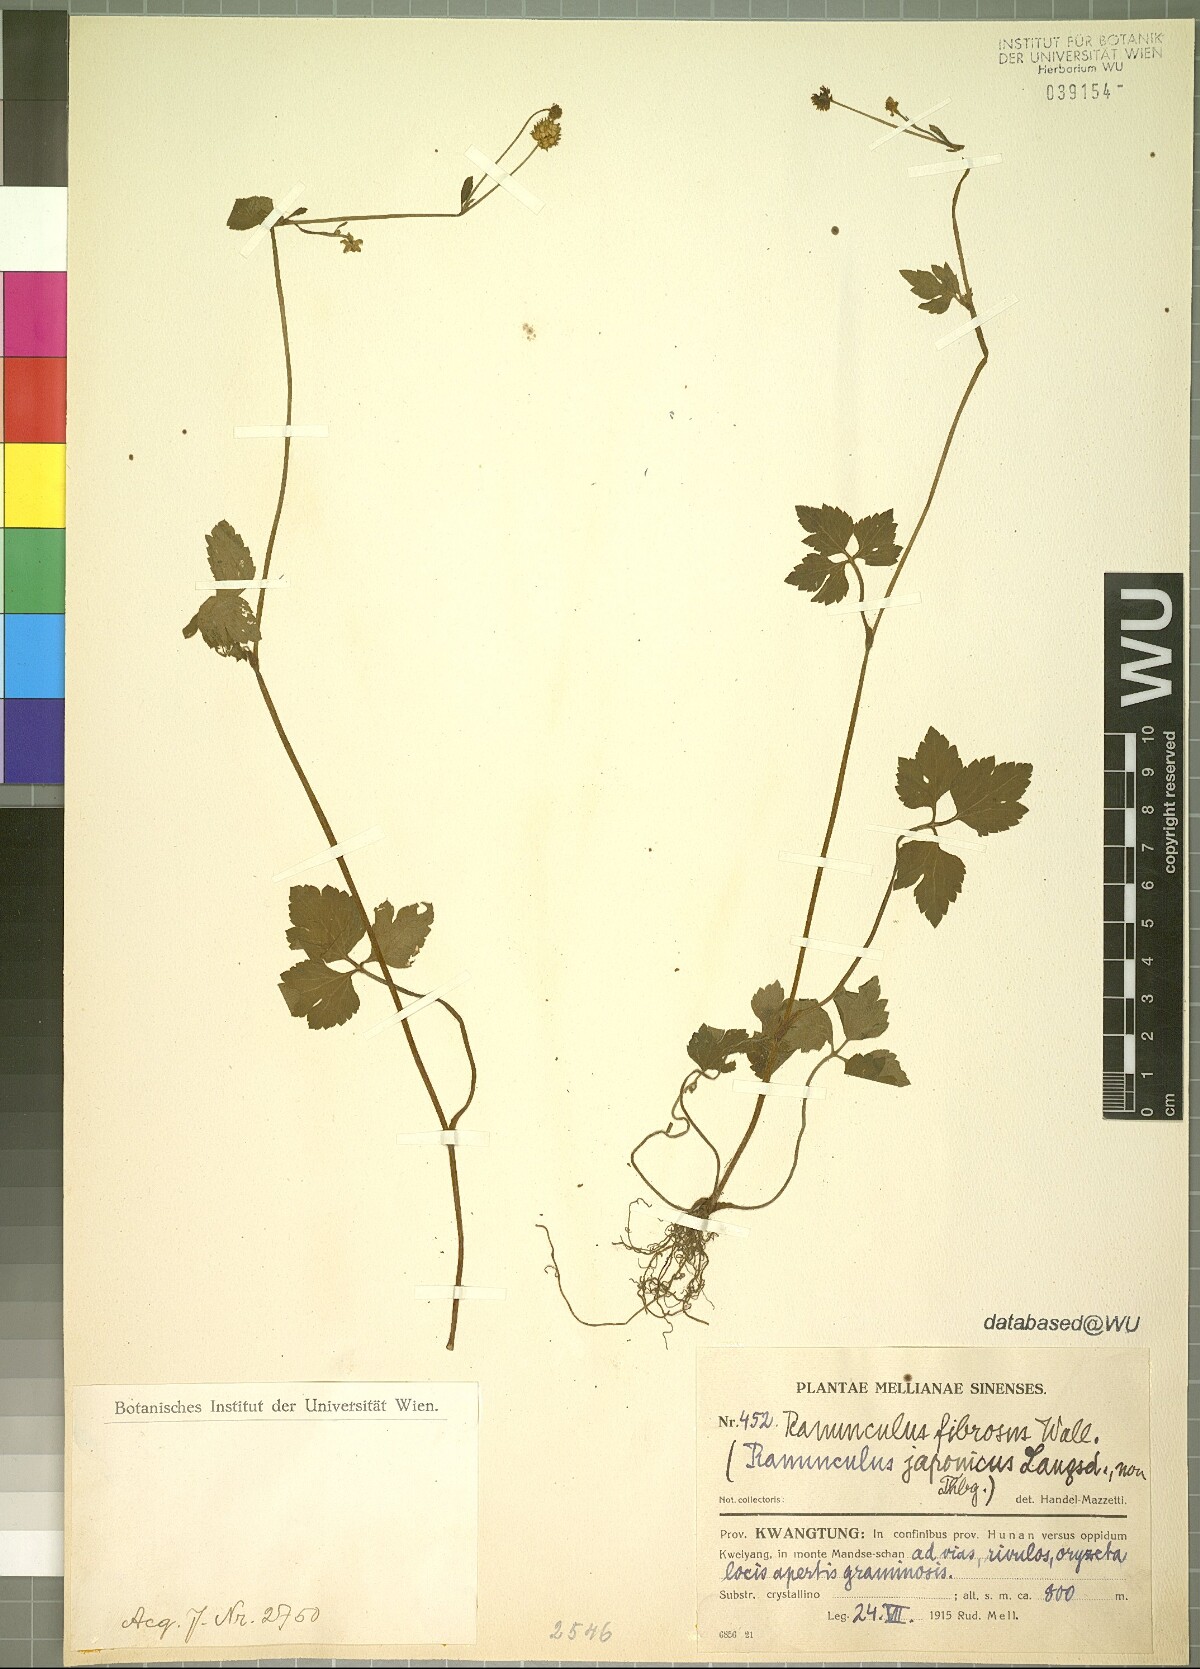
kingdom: Plantae
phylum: Tracheophyta
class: Magnoliopsida
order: Ranunculales
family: Ranunculaceae
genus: Ranunculus
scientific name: Ranunculus cantoniensis
